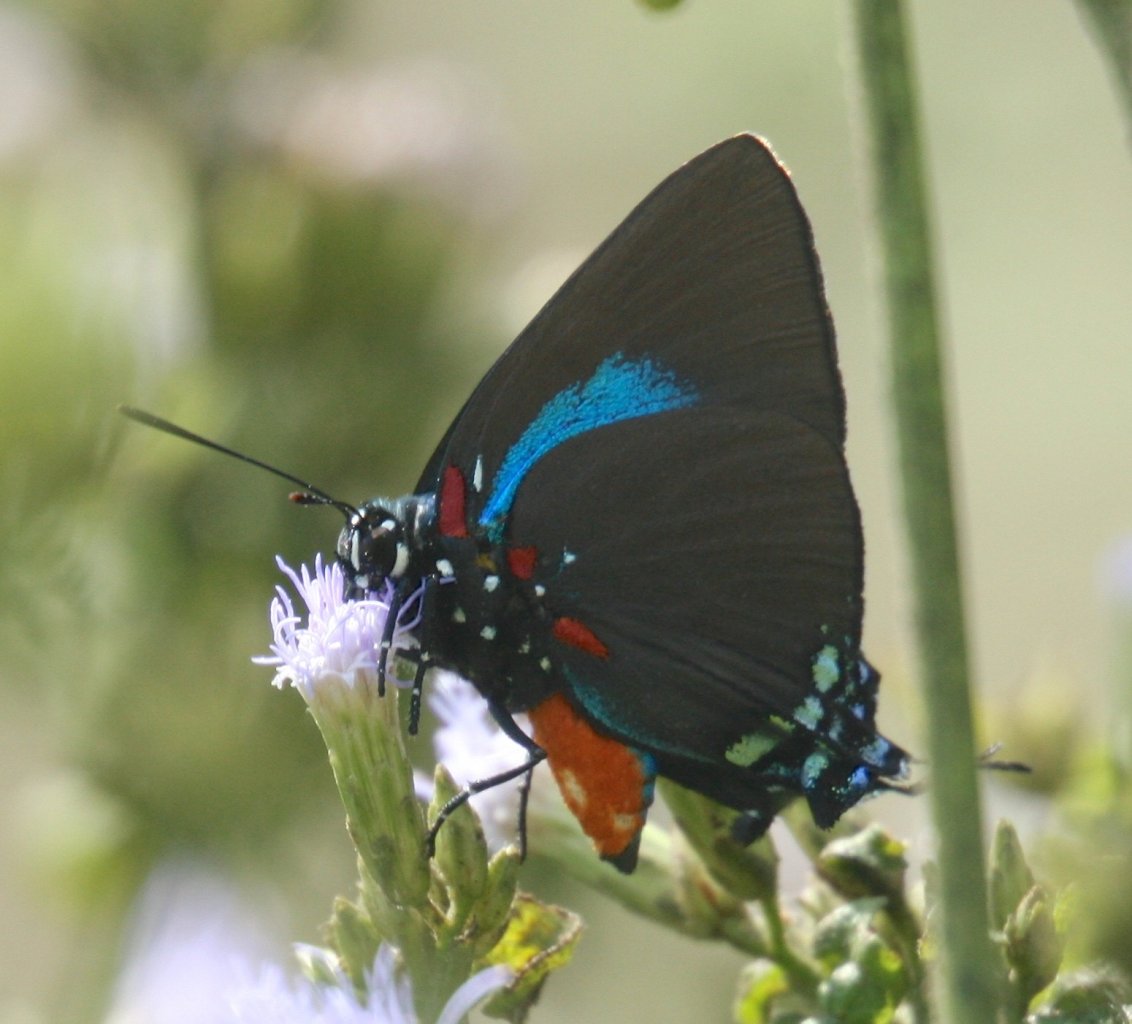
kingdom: Animalia
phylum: Arthropoda
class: Insecta
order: Lepidoptera
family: Lycaenidae
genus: Atlides
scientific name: Atlides halesus
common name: Great Purple Hairstreak
